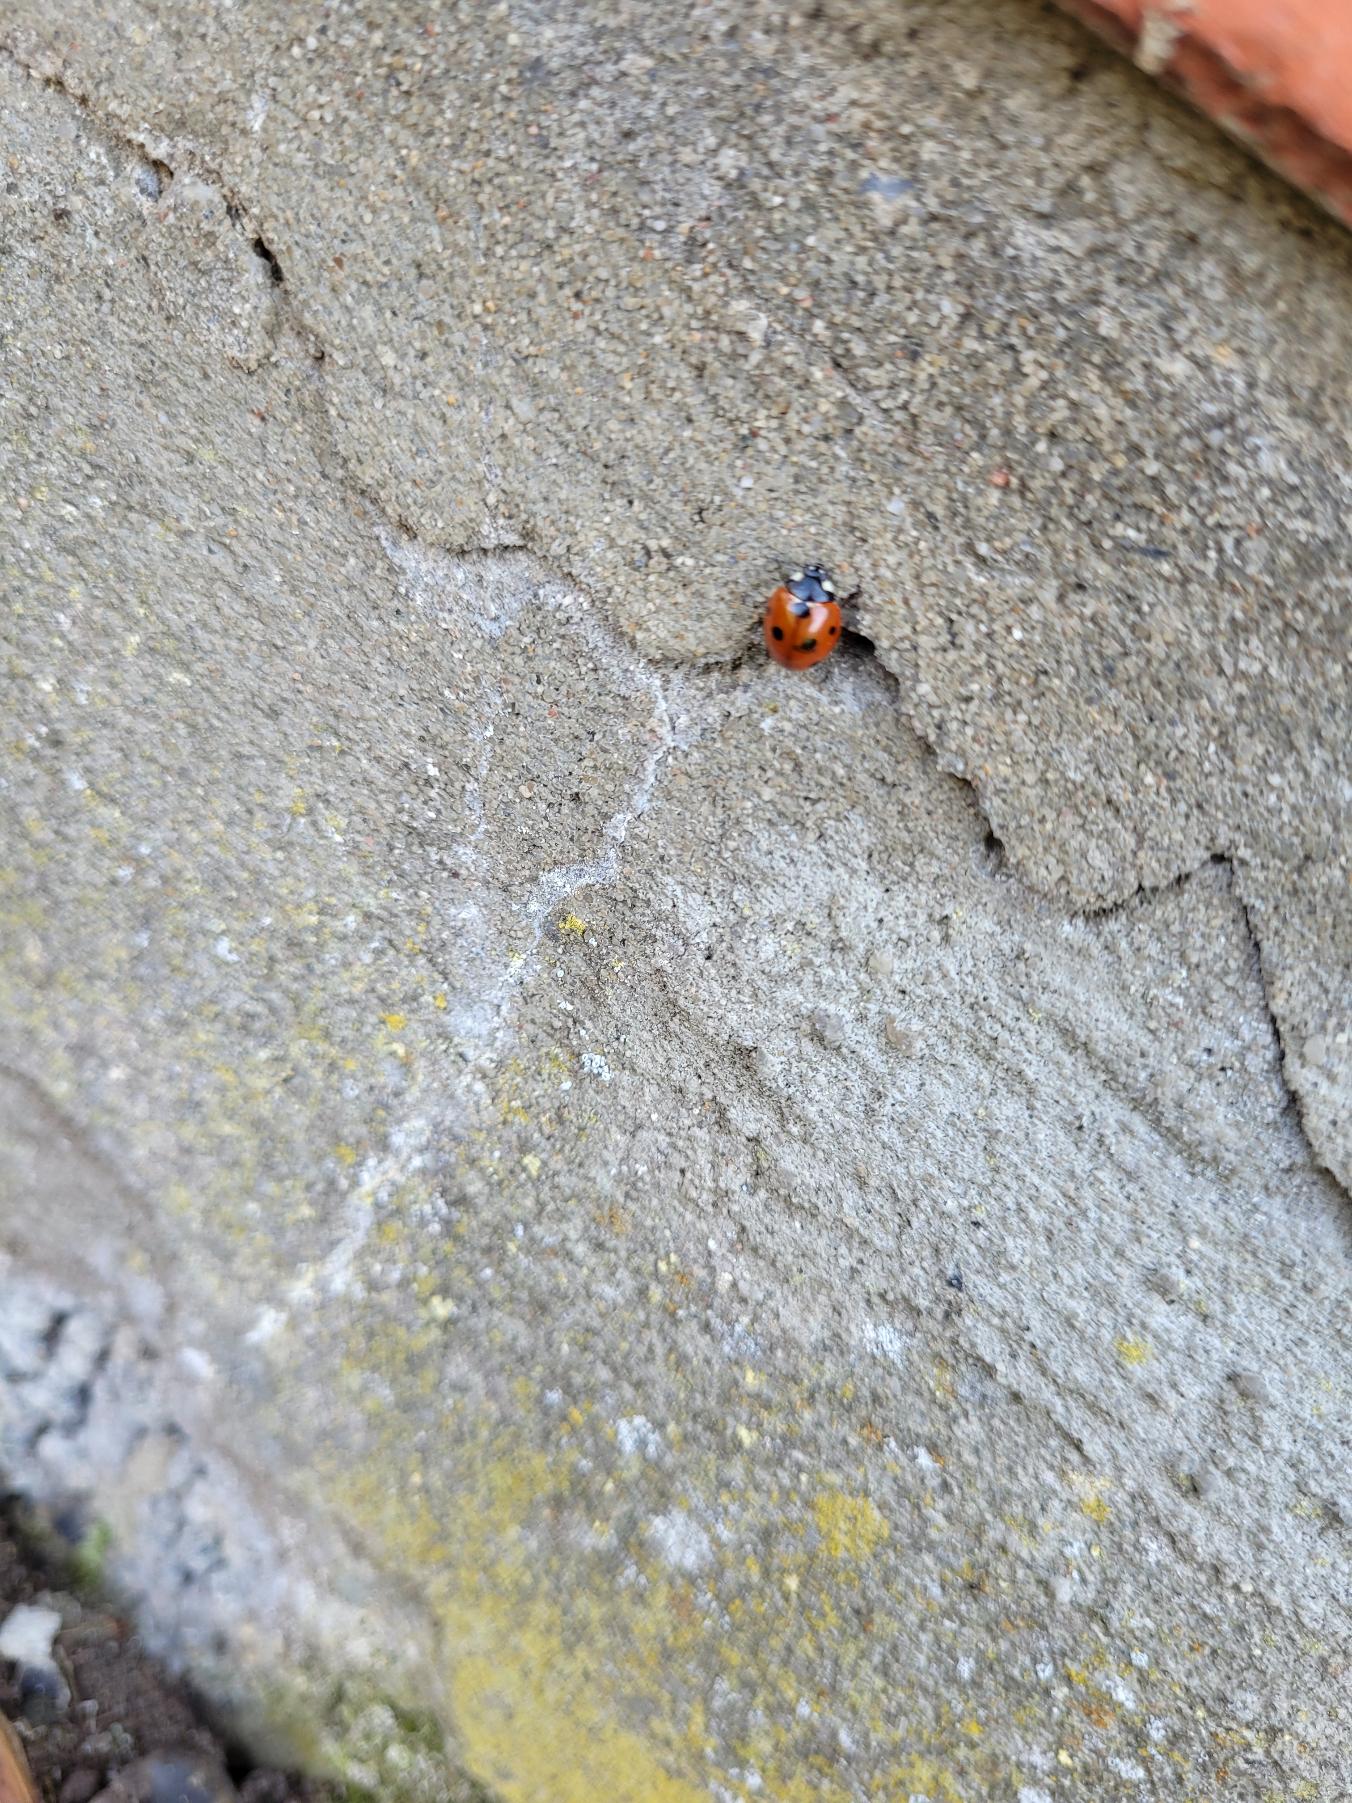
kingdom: Animalia
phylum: Arthropoda
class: Insecta
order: Coleoptera
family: Coccinellidae
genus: Coccinella
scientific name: Coccinella septempunctata
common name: Syvplettet mariehøne
